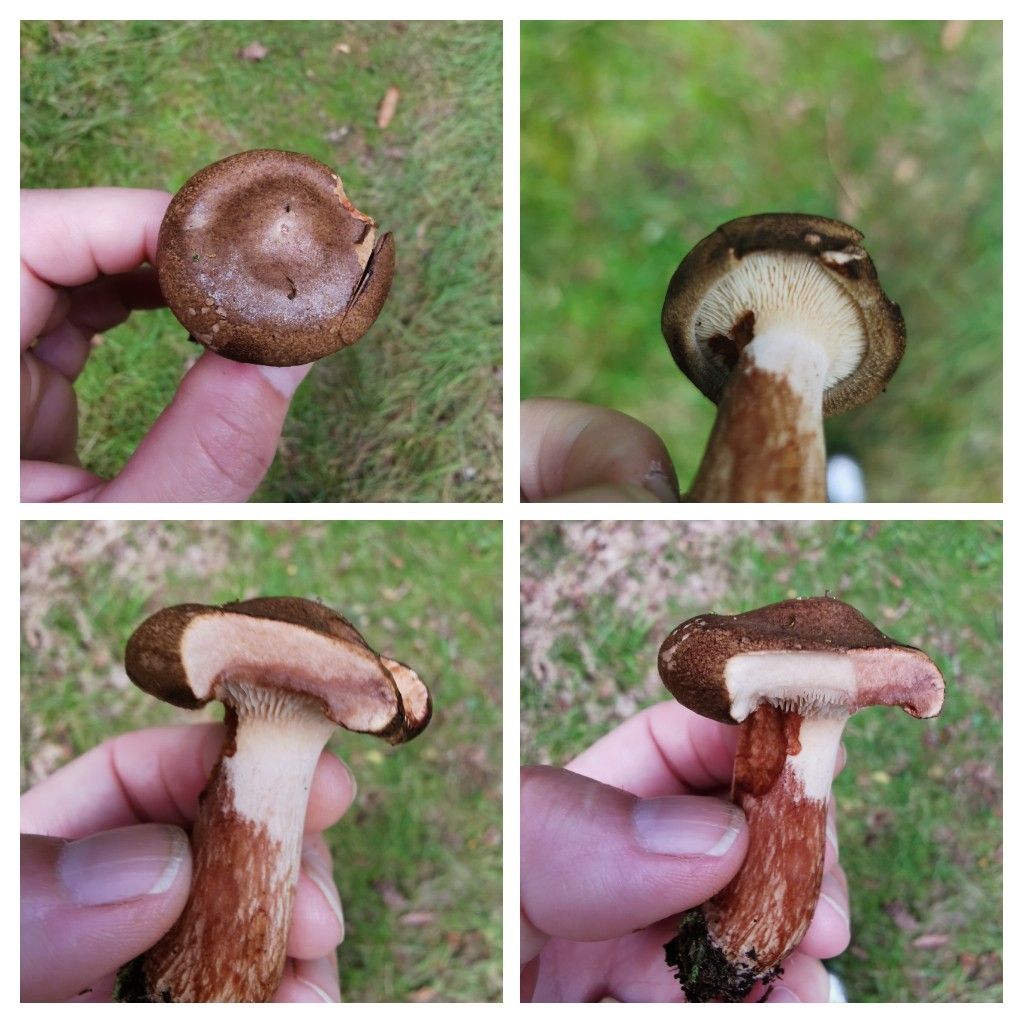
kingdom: Fungi
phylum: Basidiomycota
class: Agaricomycetes
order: Boletales
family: Paxillaceae
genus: Paxillus
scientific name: Paxillus
